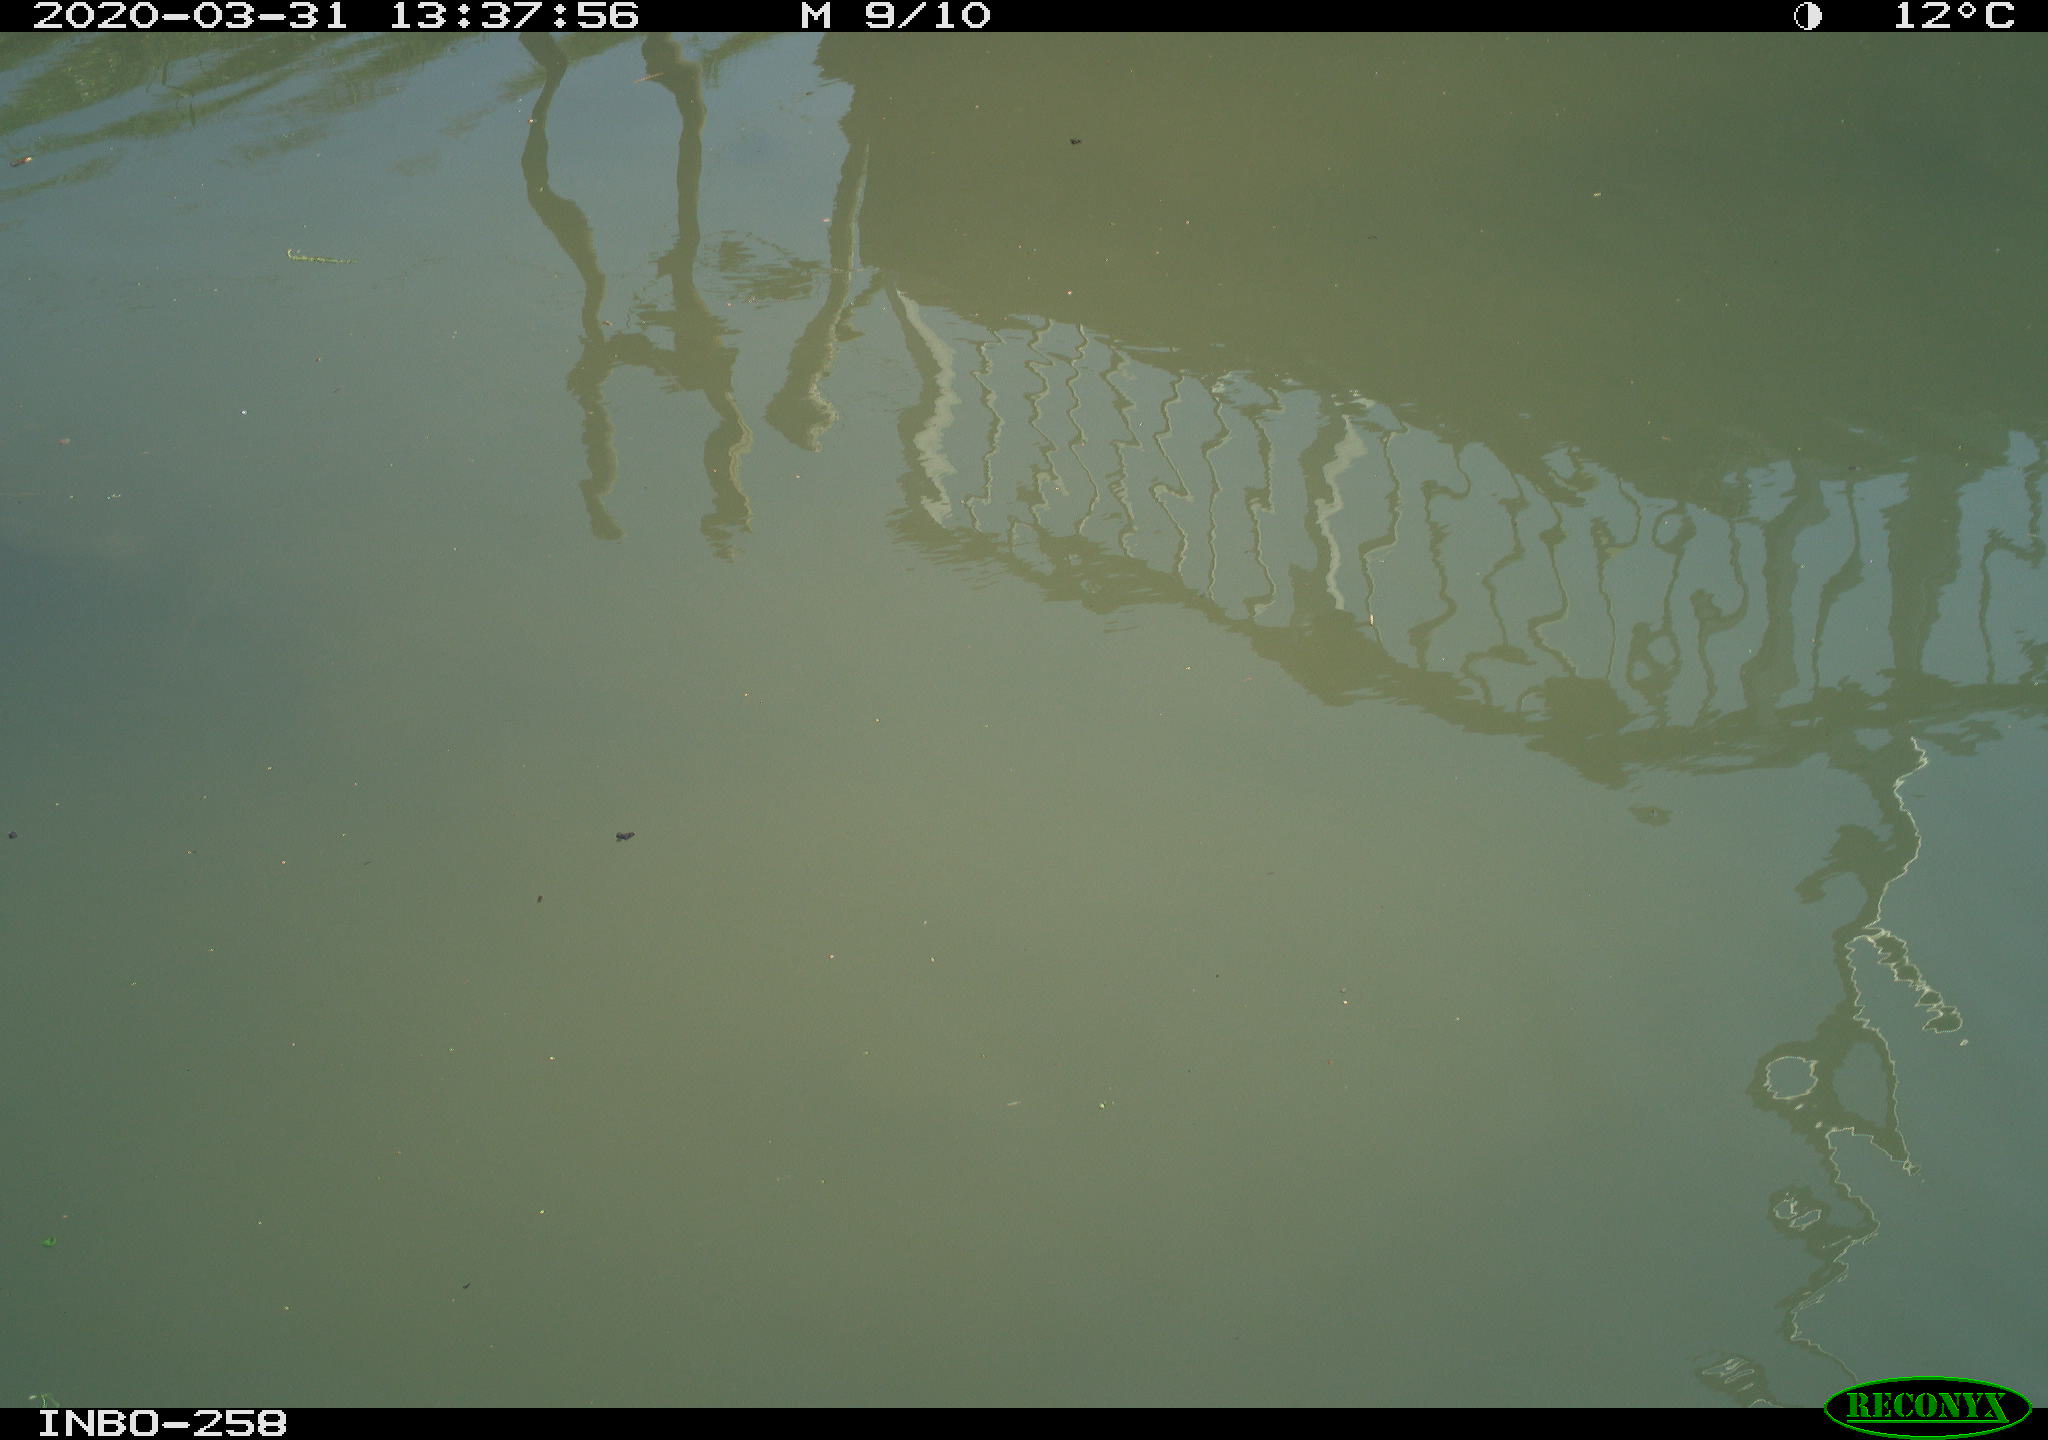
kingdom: Animalia
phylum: Chordata
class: Aves
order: Anseriformes
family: Anatidae
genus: Anas
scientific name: Anas platyrhynchos
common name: Mallard
